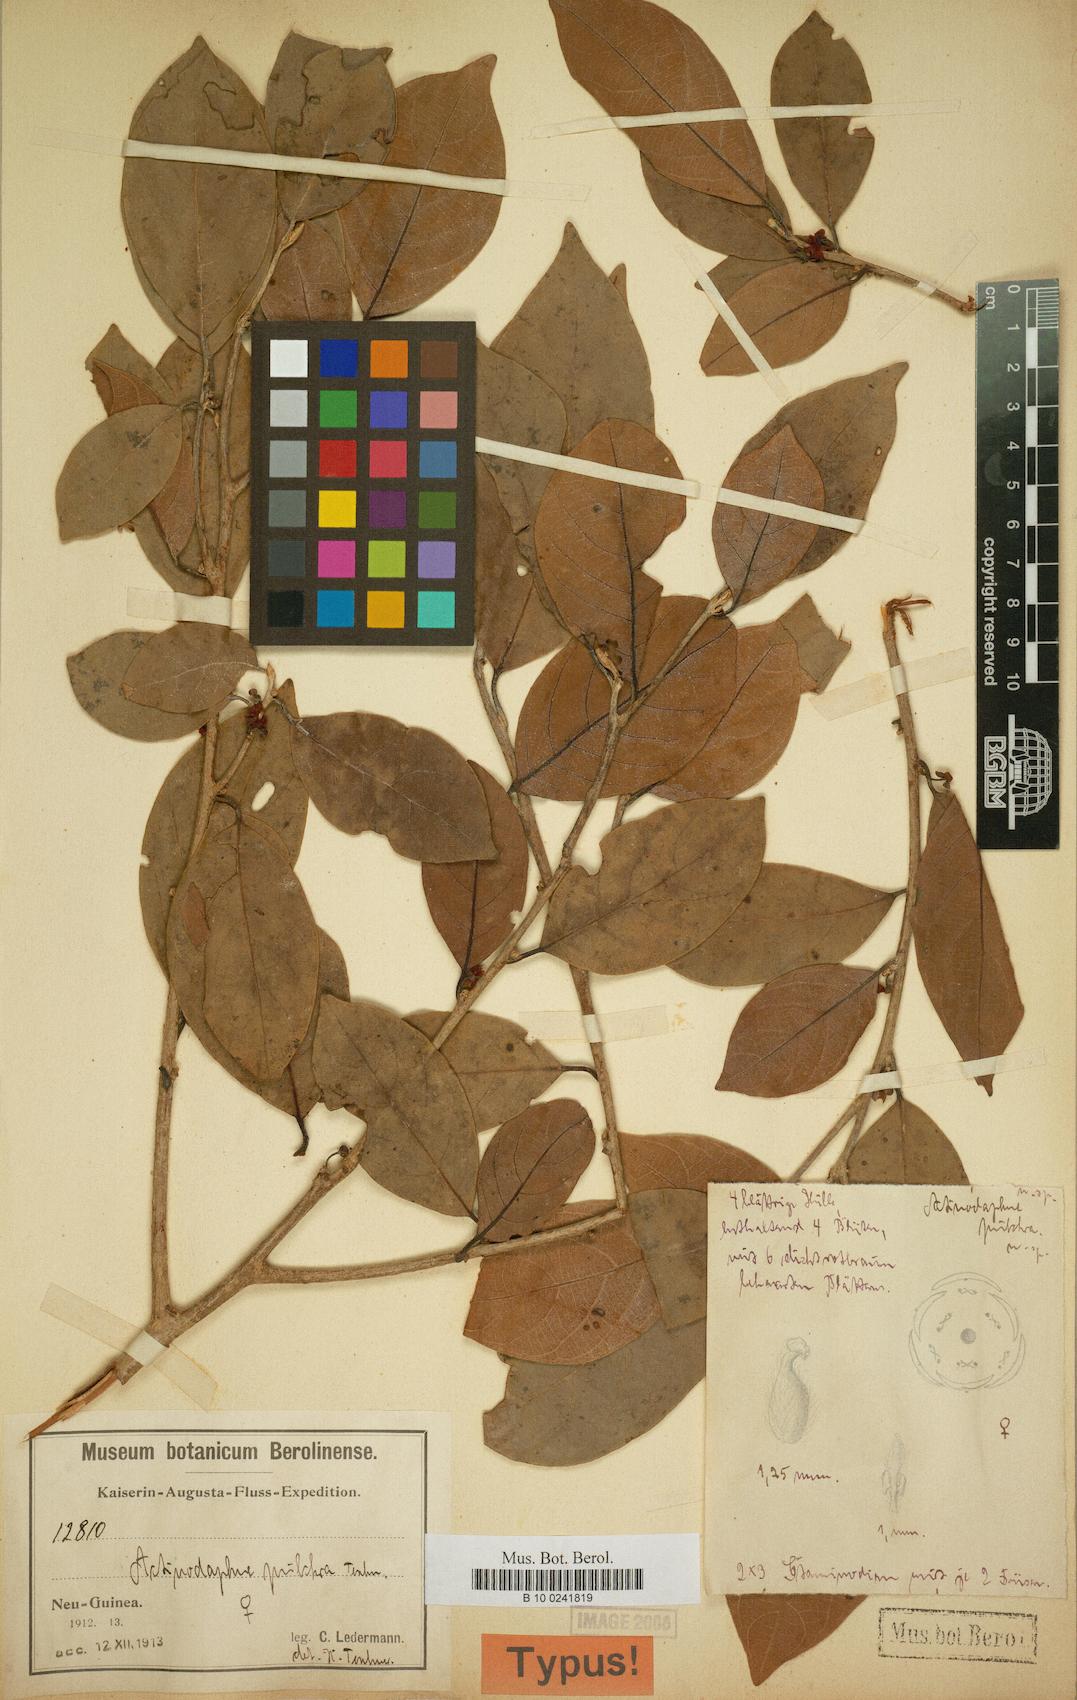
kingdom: Plantae
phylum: Tracheophyta
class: Magnoliopsida
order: Laurales
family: Lauraceae
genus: Litsea
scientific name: Litsea minor
